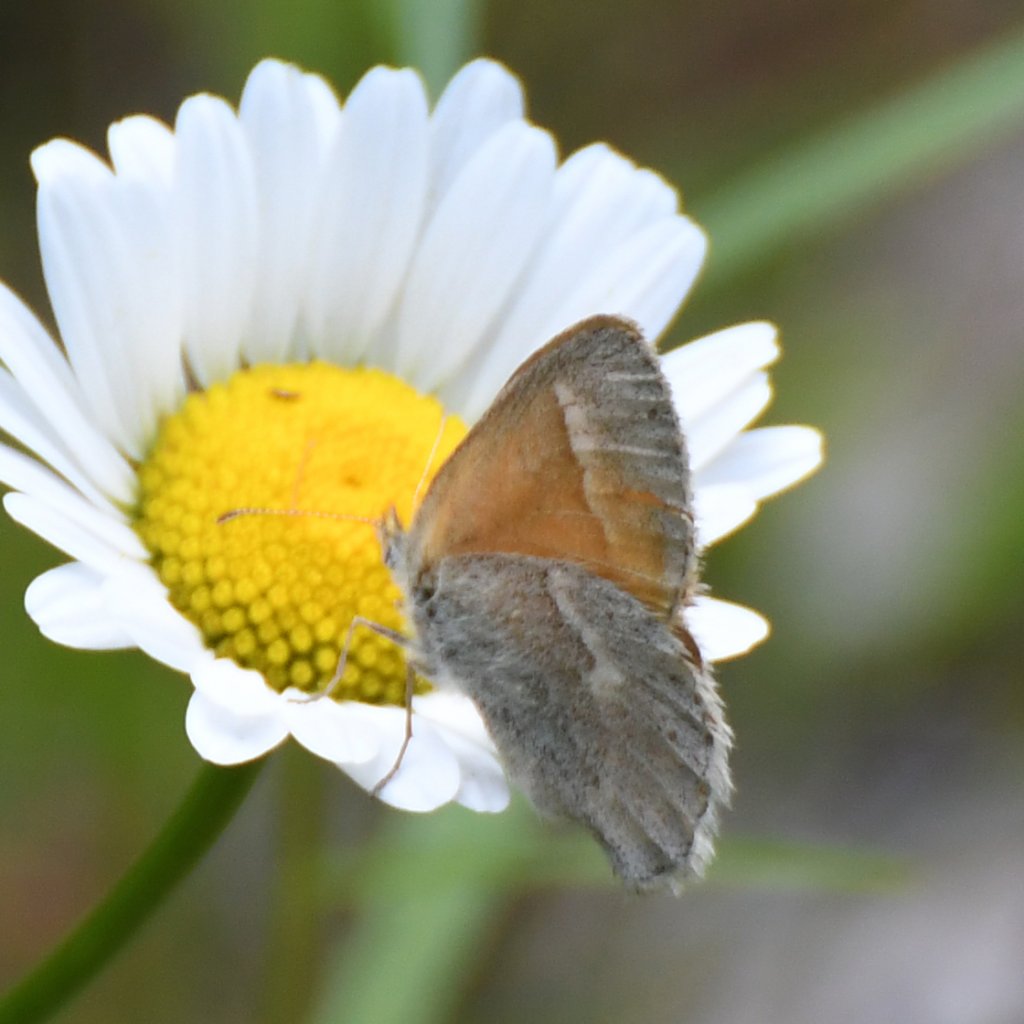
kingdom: Animalia
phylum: Arthropoda
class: Insecta
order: Lepidoptera
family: Nymphalidae
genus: Coenonympha
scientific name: Coenonympha tullia
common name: Large Heath
